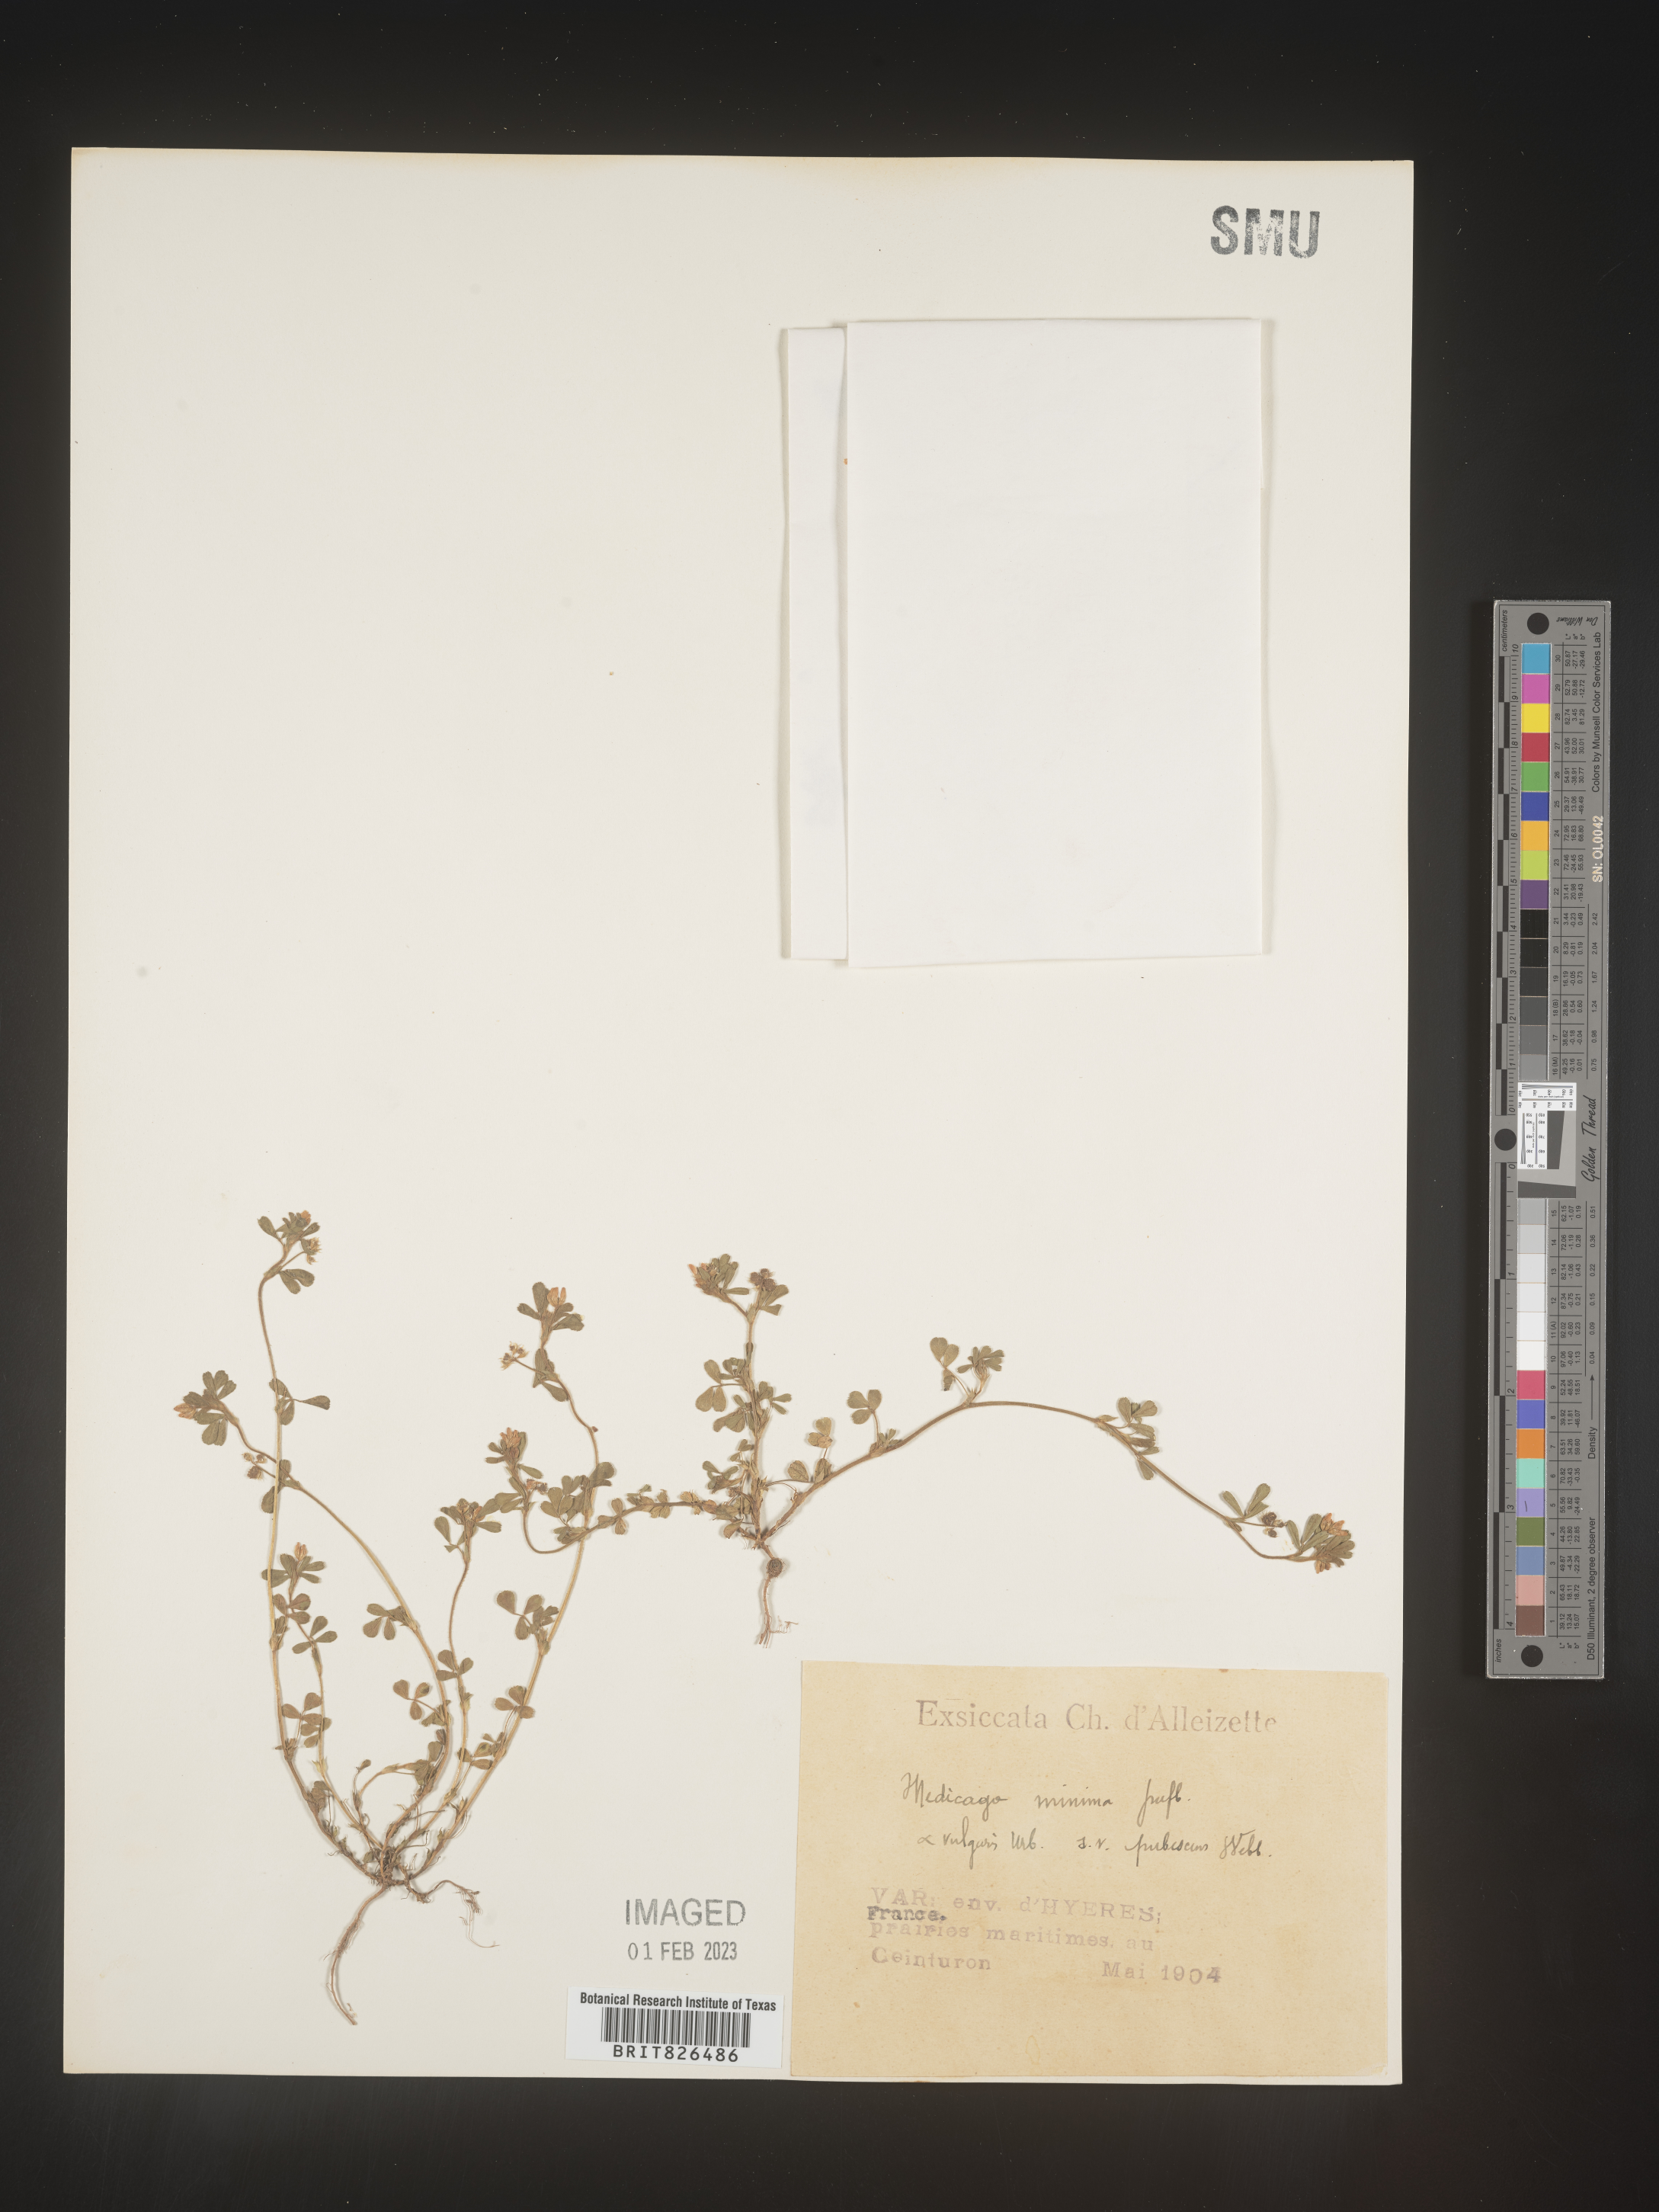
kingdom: Plantae
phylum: Tracheophyta
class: Magnoliopsida
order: Fabales
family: Fabaceae
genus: Medicago
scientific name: Medicago
